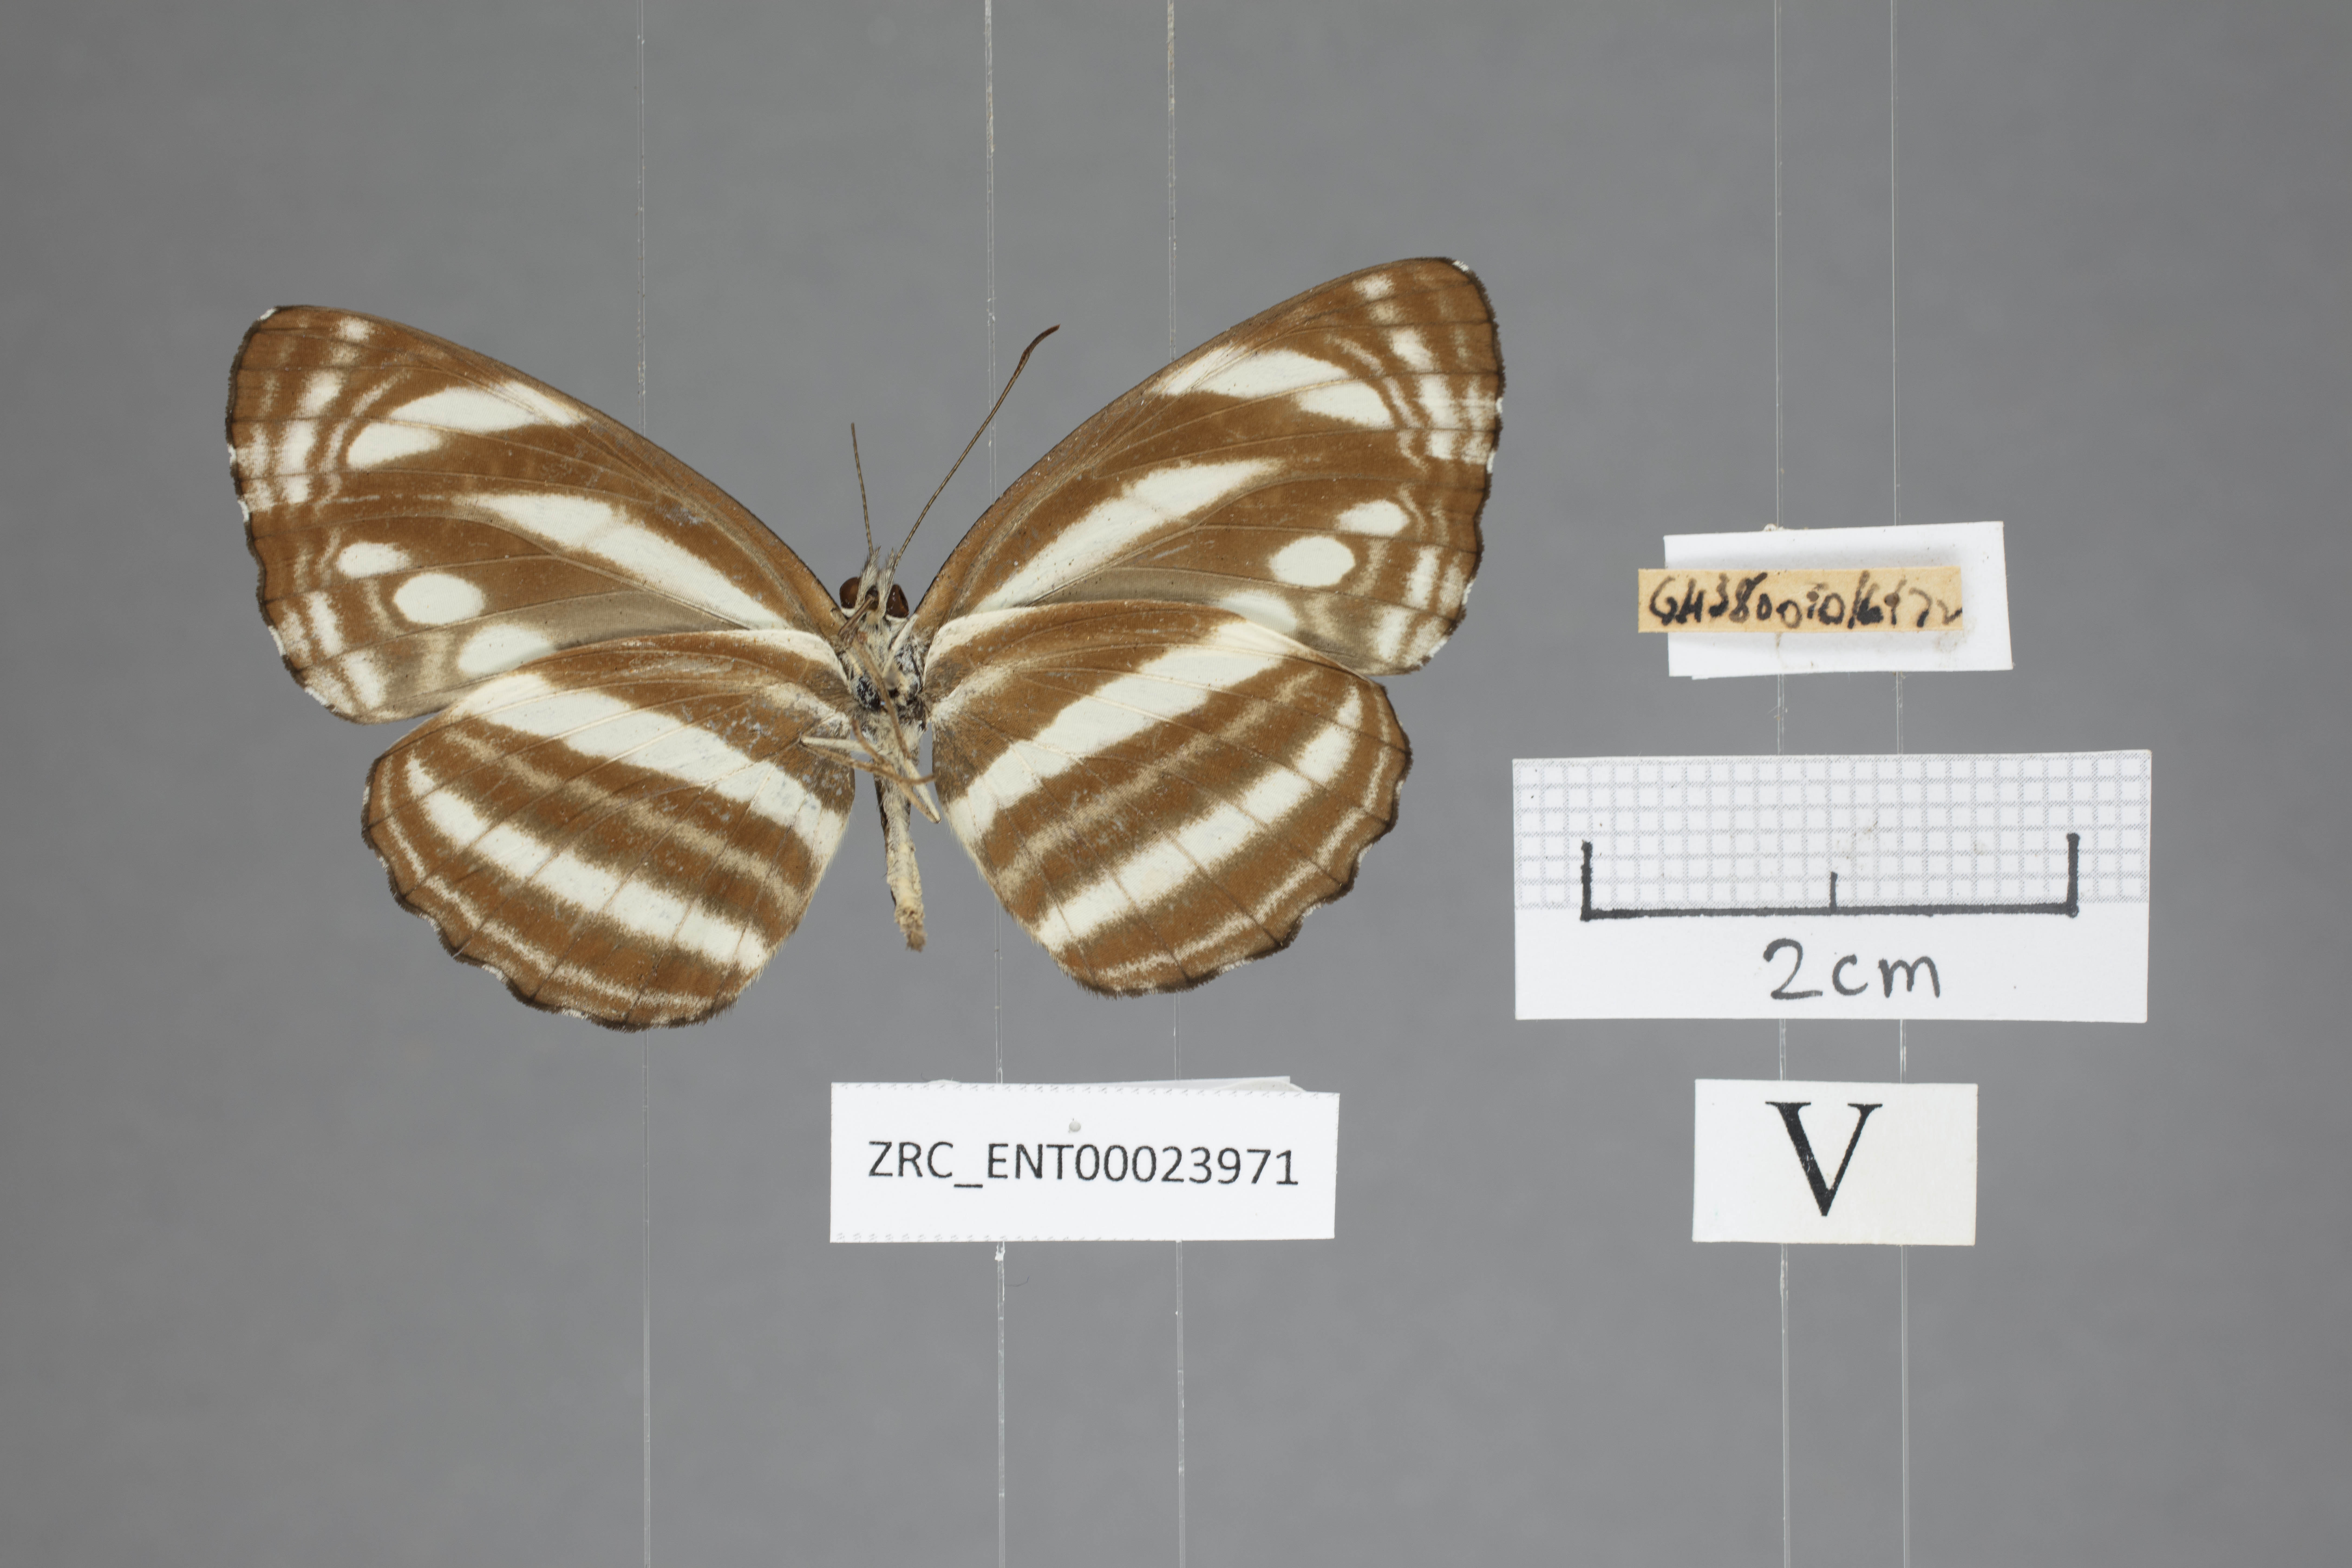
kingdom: Animalia
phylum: Arthropoda
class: Insecta
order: Lepidoptera
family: Nymphalidae
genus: Neptis
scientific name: Neptis clinioides
